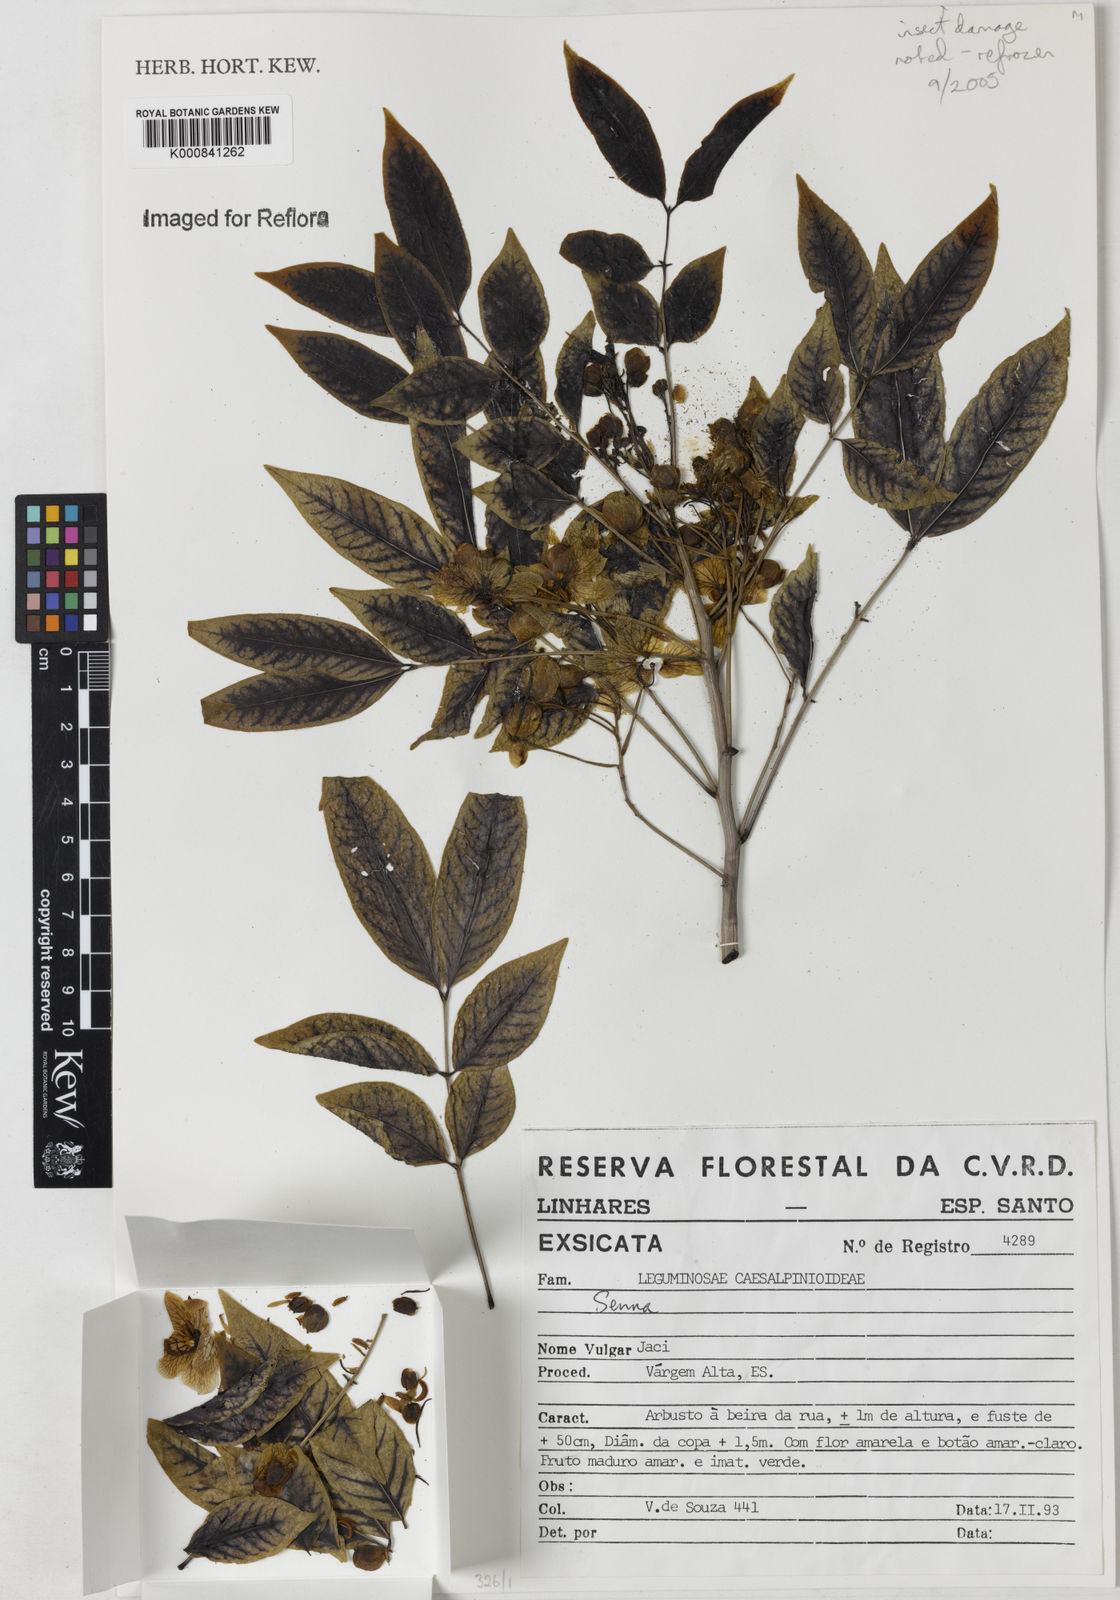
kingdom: Plantae
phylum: Tracheophyta
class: Magnoliopsida
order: Fabales
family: Fabaceae
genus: Senna
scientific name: Senna tropica
